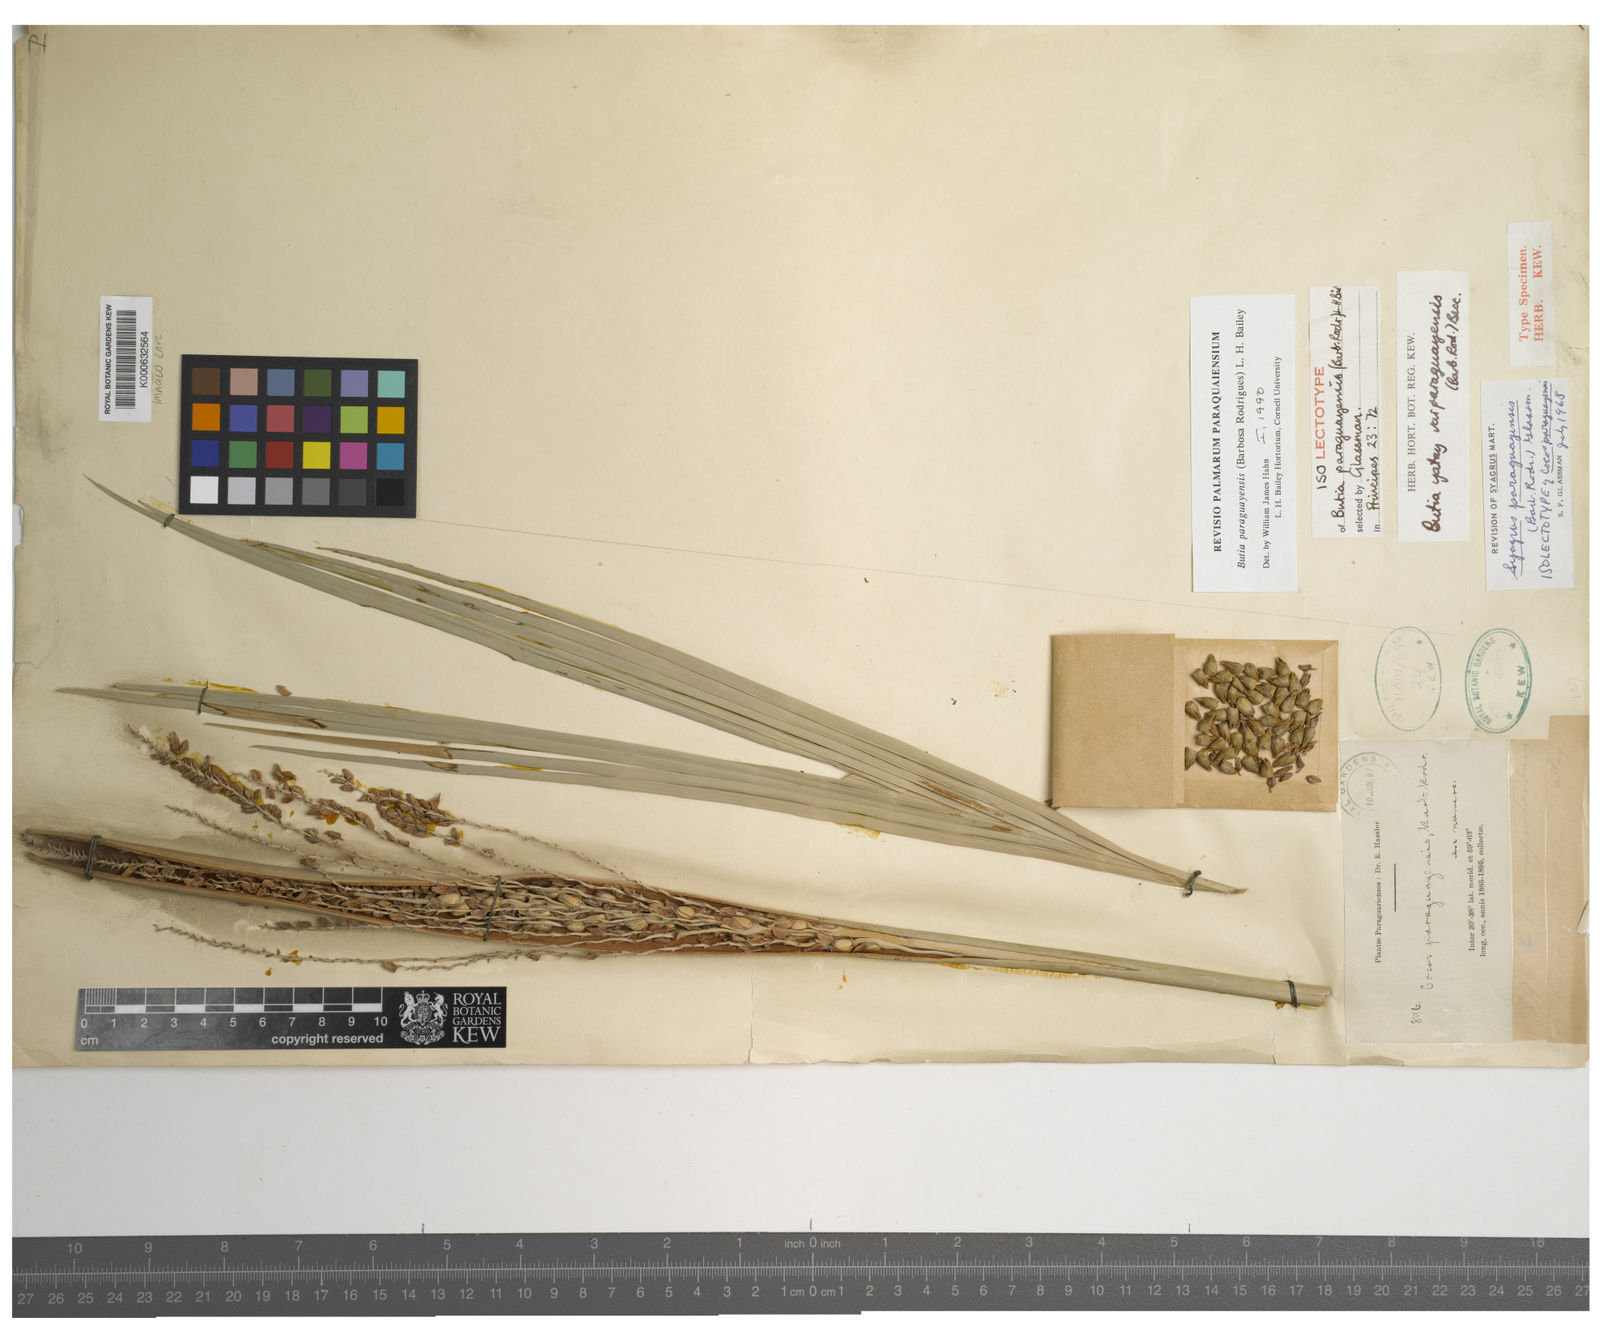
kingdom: Plantae
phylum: Tracheophyta
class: Liliopsida
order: Arecales
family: Arecaceae
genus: Butia
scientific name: Butia paraguayensis
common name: Dwarf yatay palm
